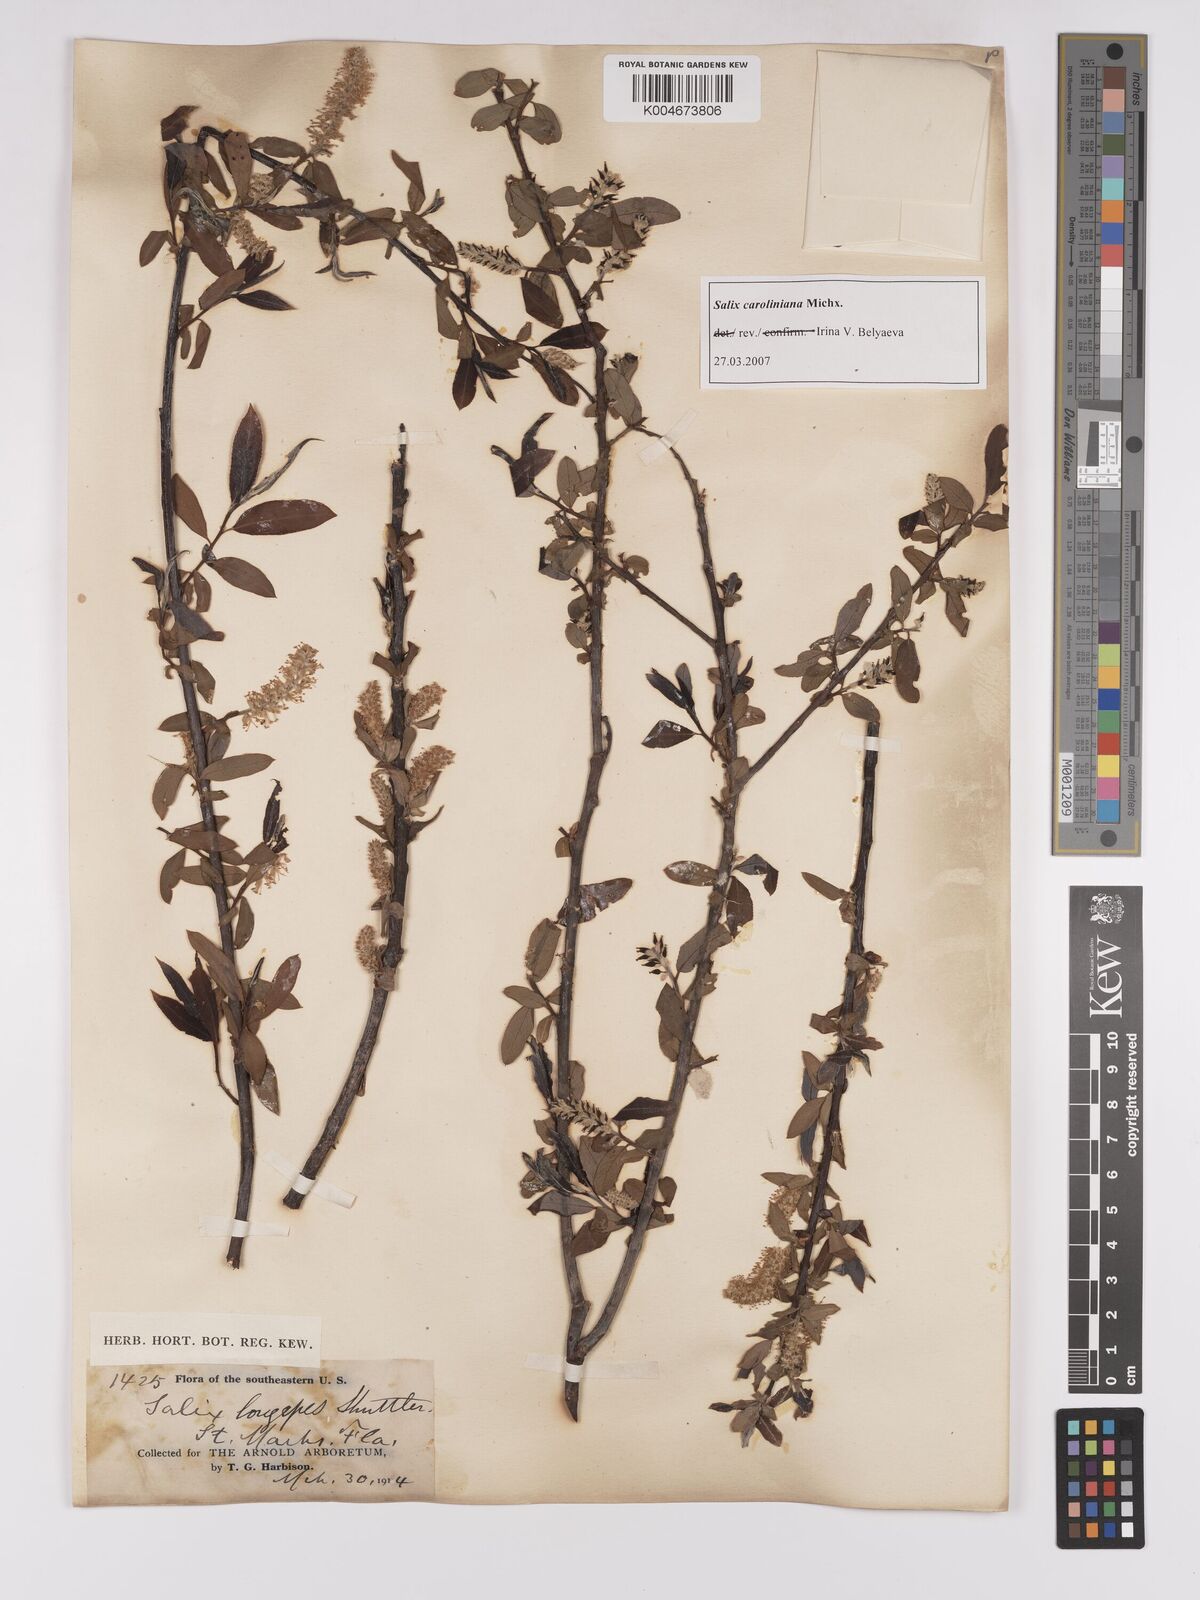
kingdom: Plantae
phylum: Tracheophyta
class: Magnoliopsida
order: Malpighiales
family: Salicaceae
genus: Salix
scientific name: Salix caroliniana
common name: Carolina willow
